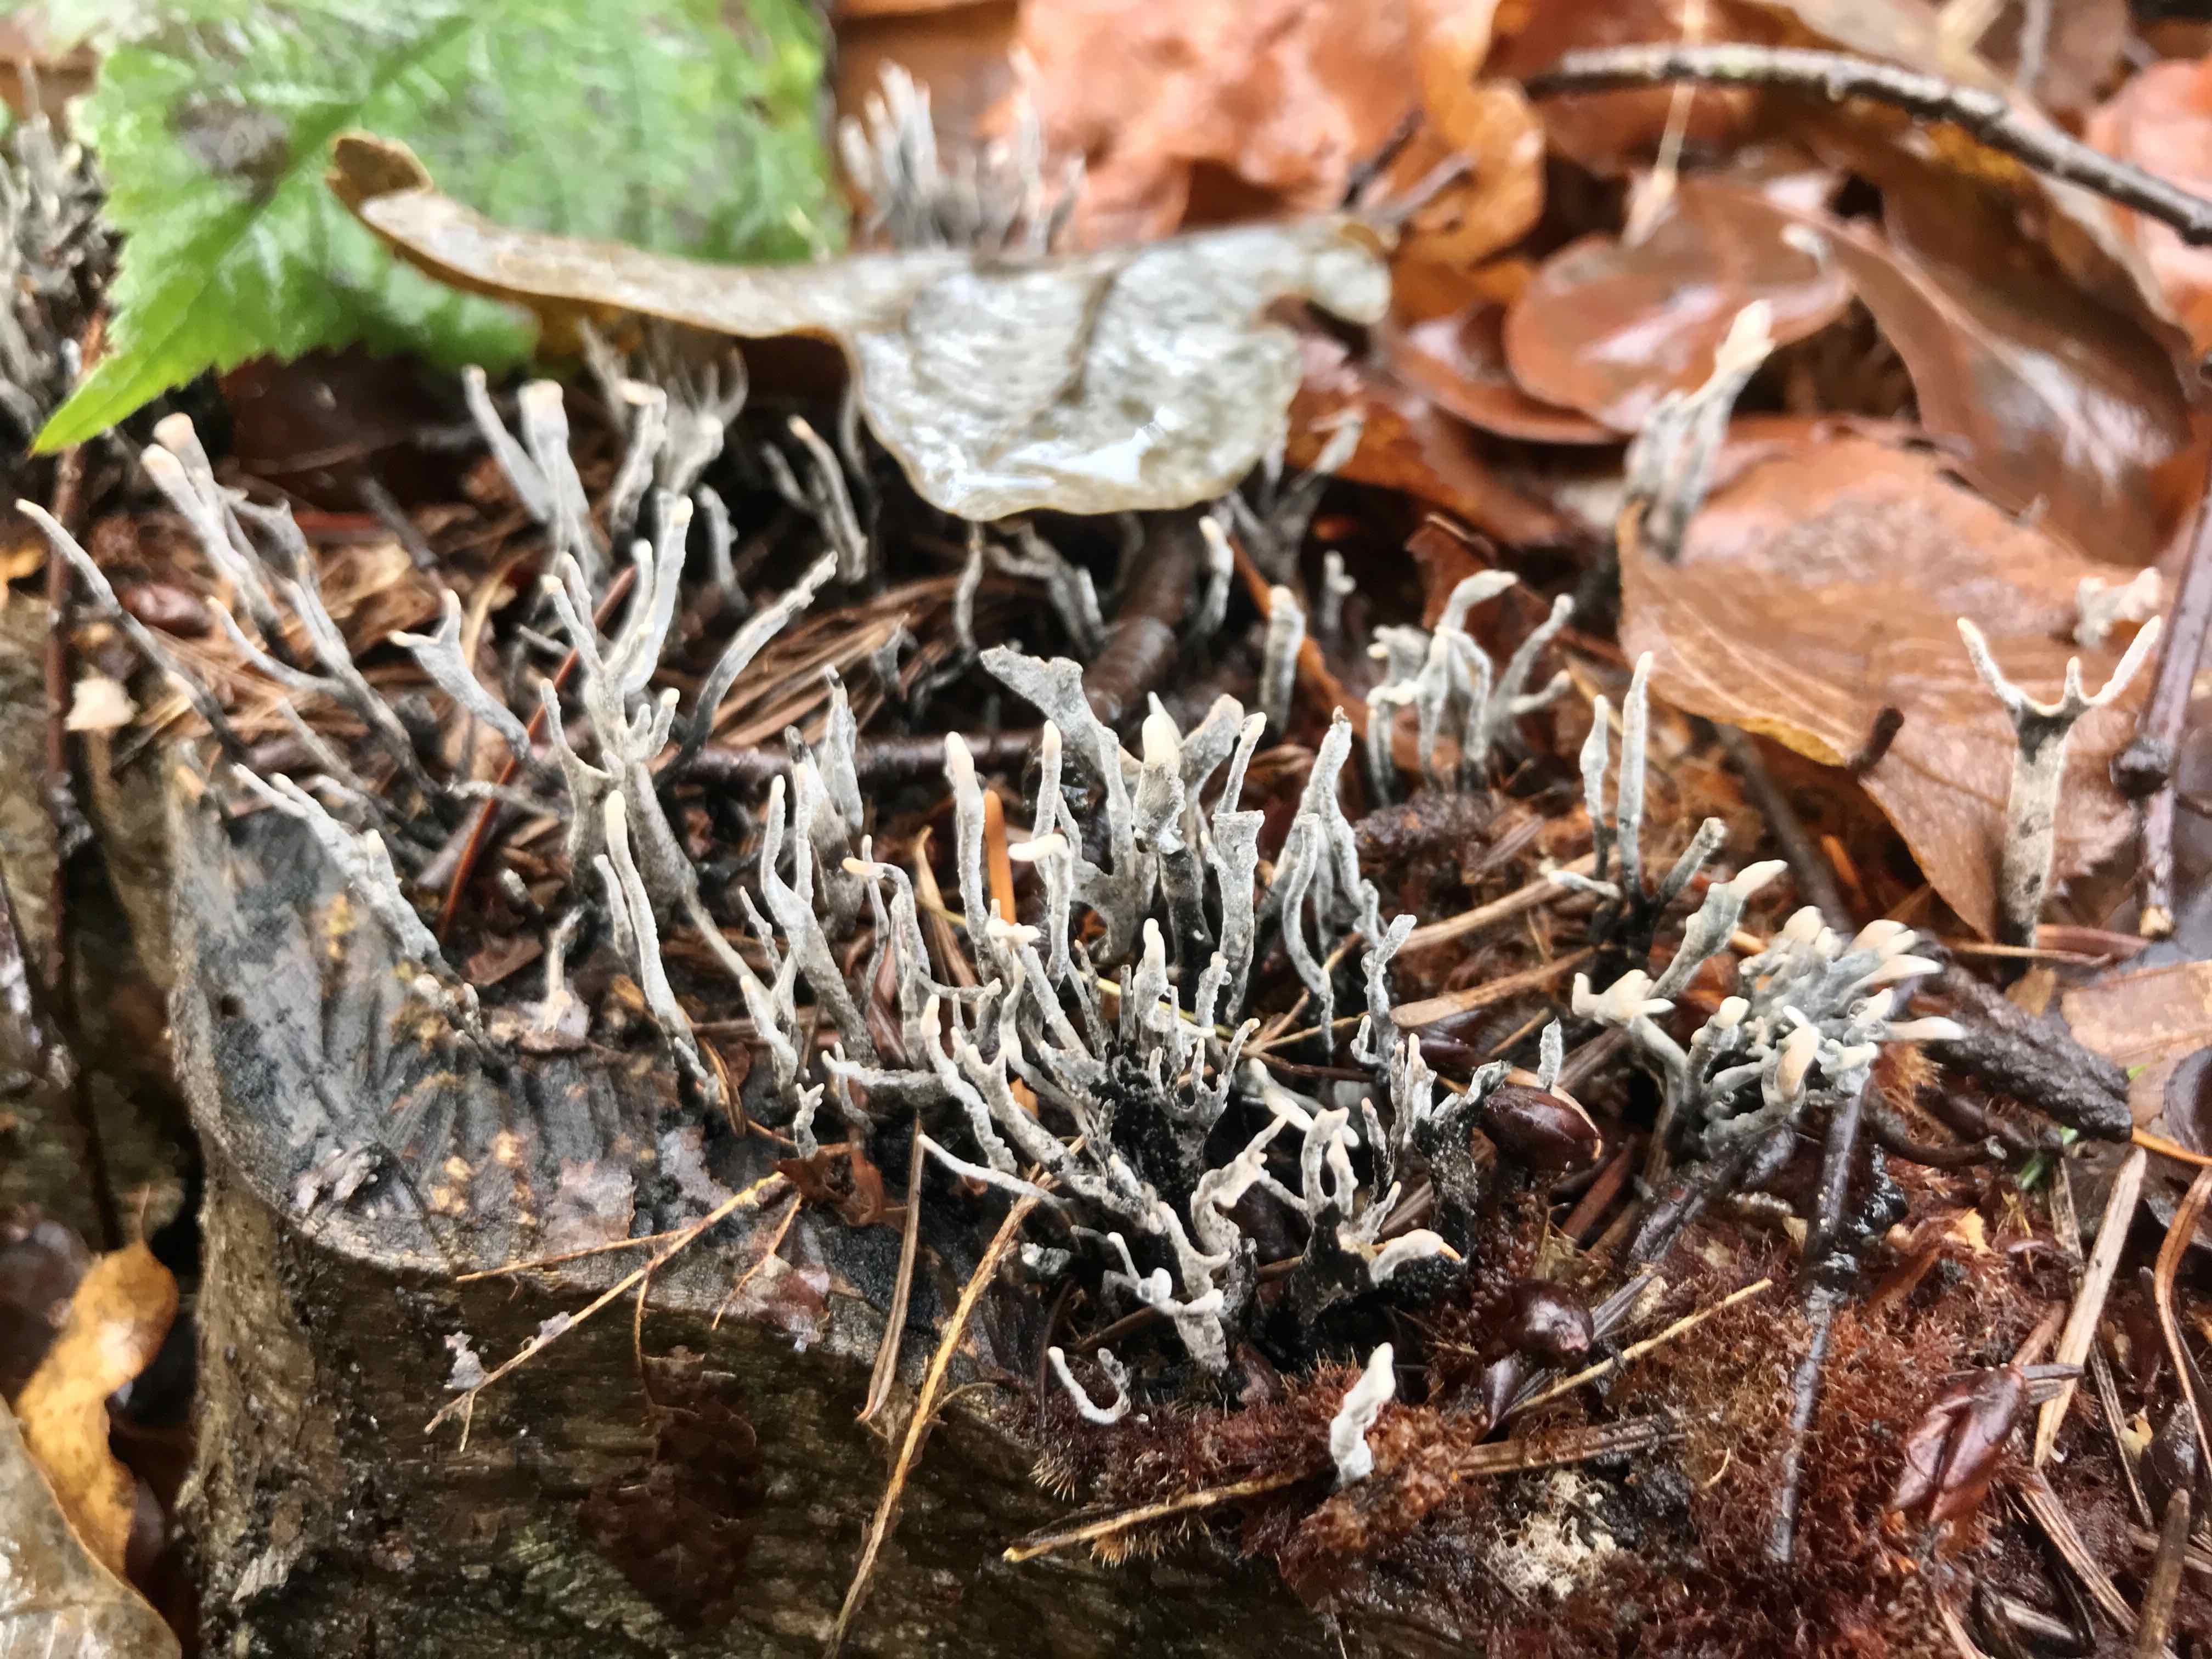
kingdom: Fungi
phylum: Ascomycota
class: Sordariomycetes
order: Xylariales
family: Xylariaceae
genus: Xylaria
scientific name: Xylaria hypoxylon
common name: grenet stødsvamp
